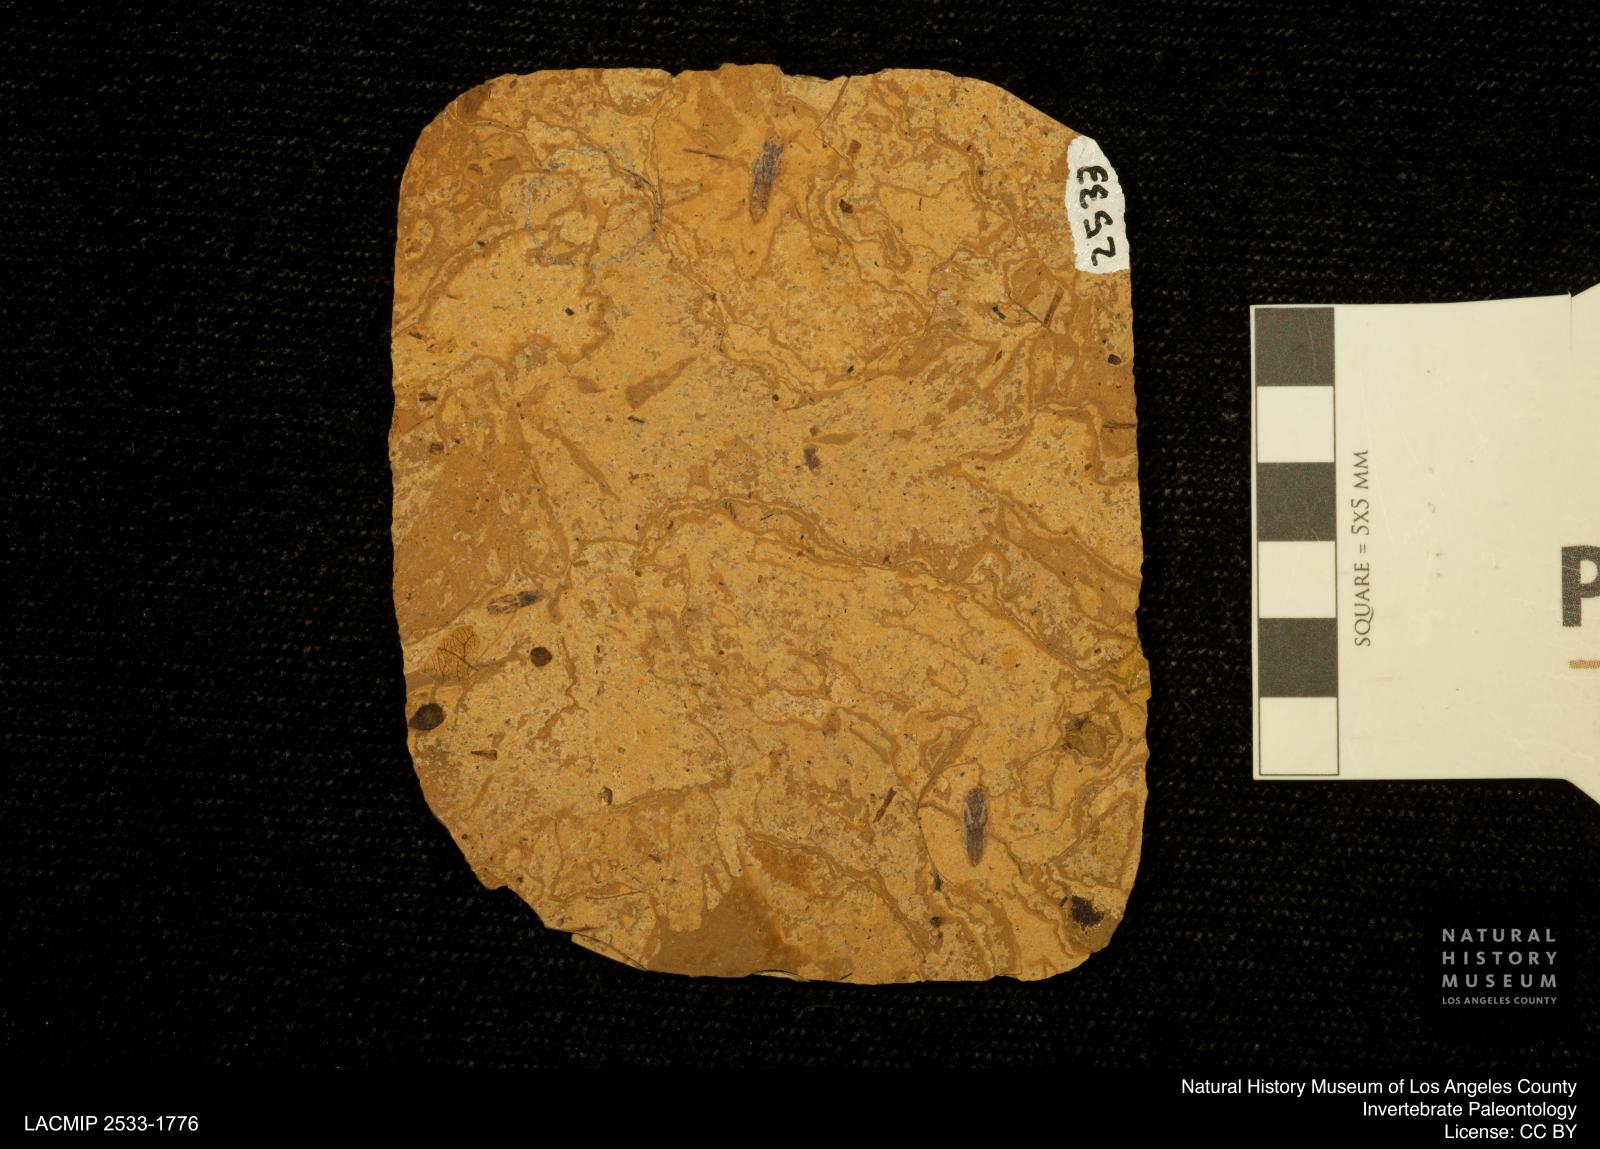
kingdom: Animalia
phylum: Arthropoda
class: Insecta
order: Hemiptera
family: Notonectidae
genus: Notonecta
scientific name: Notonecta
